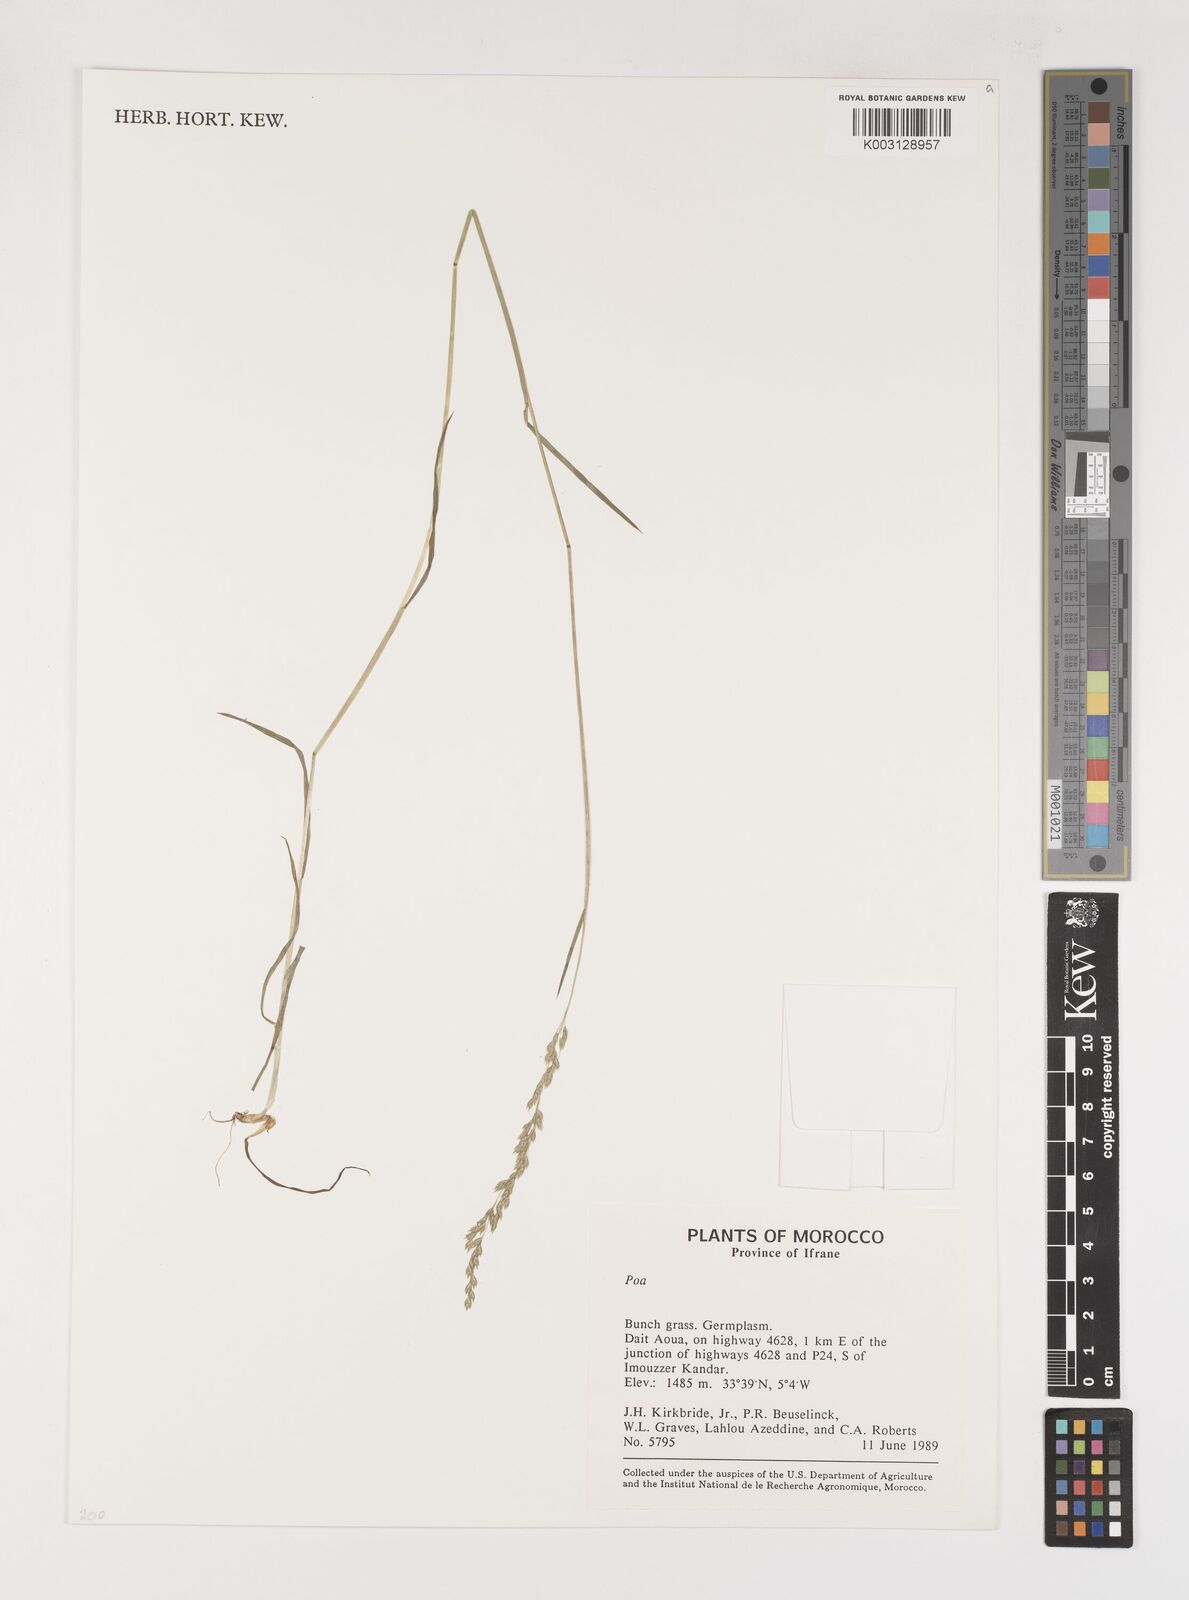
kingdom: Plantae
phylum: Tracheophyta
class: Liliopsida
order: Poales
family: Poaceae
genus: Poa
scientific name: Poa
